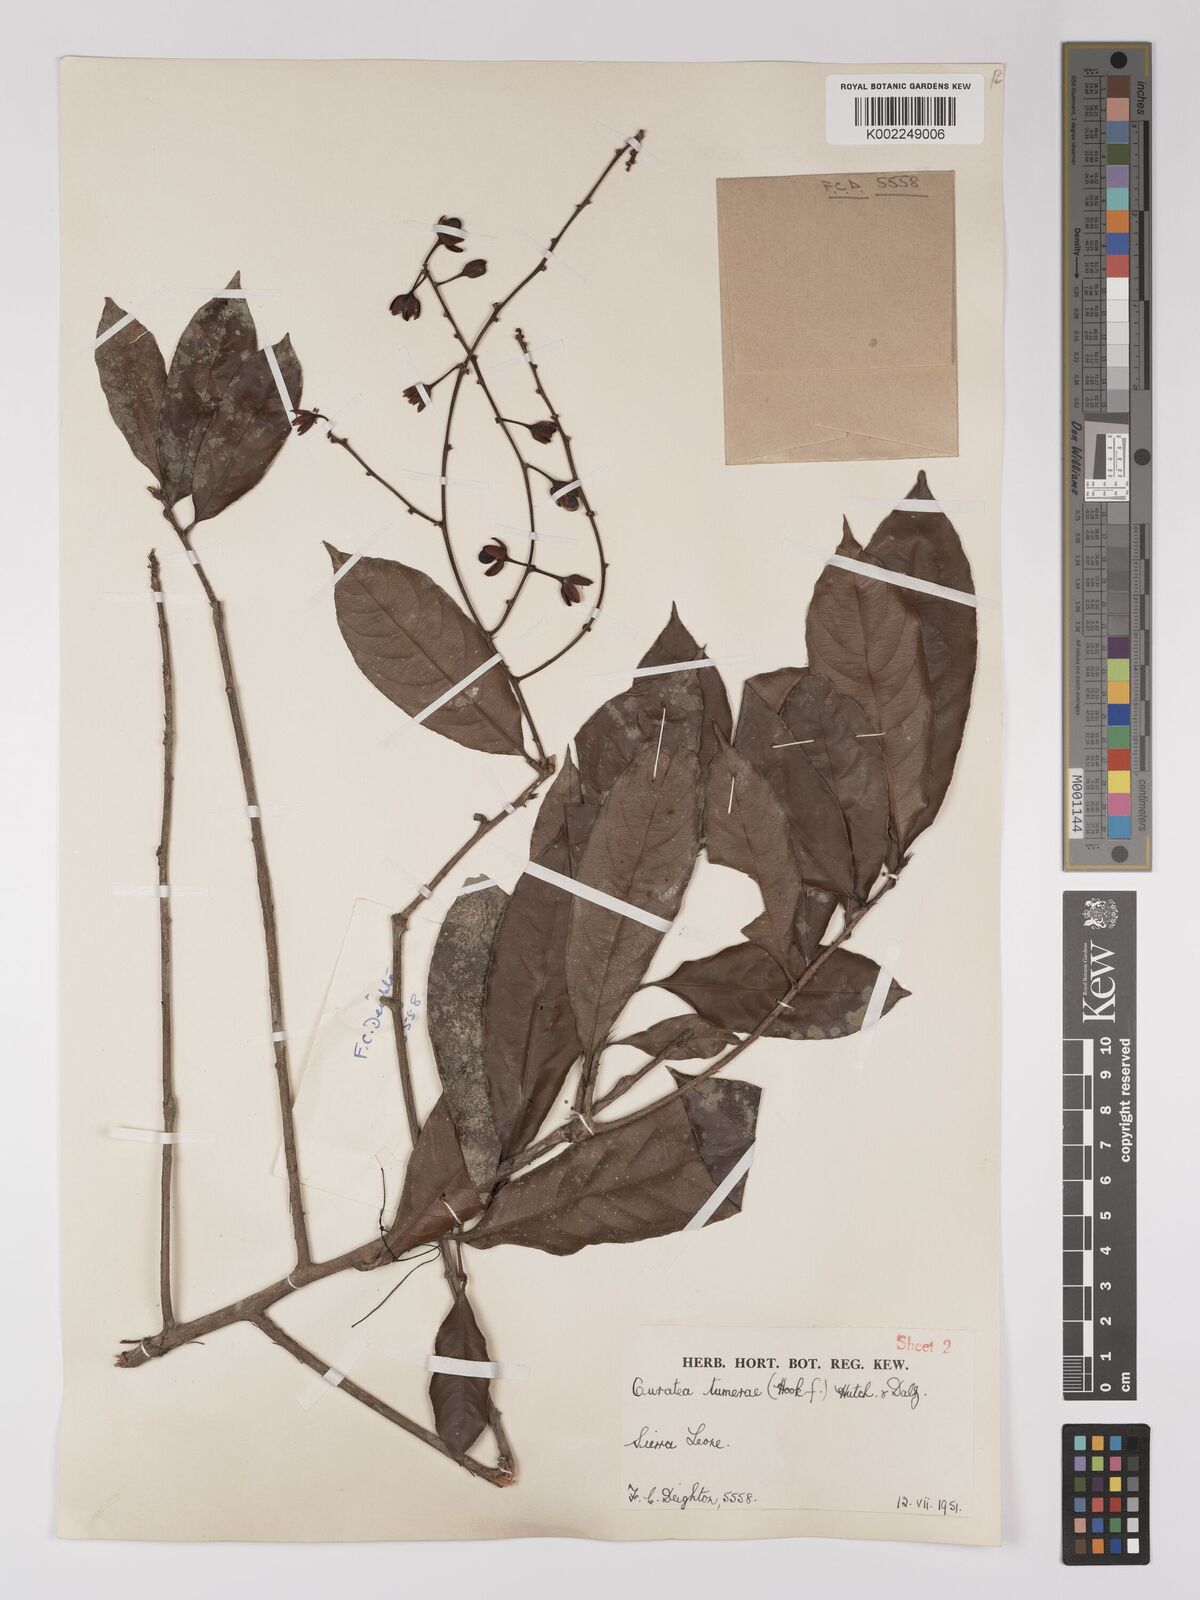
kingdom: Plantae
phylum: Tracheophyta
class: Magnoliopsida
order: Malpighiales
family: Ochnaceae
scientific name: Ochnaceae
